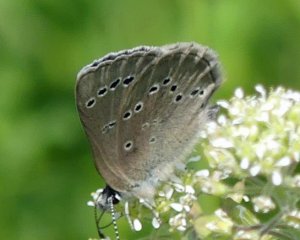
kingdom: Animalia
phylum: Arthropoda
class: Insecta
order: Lepidoptera
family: Lycaenidae
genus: Glaucopsyche
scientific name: Glaucopsyche lygdamus
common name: Silvery Blue
